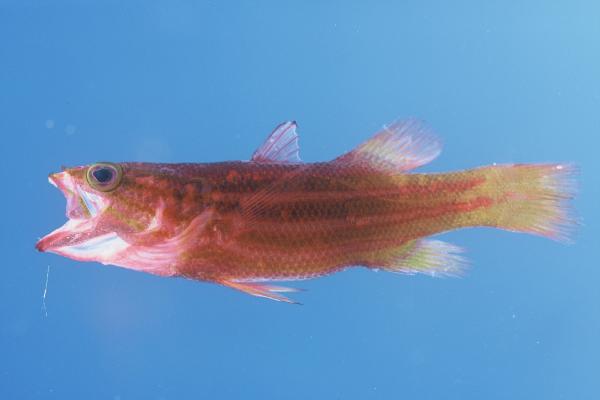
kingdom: Animalia
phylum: Chordata
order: Perciformes
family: Serranidae
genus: Liopropoma
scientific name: Liopropoma africanum
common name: African basslet
